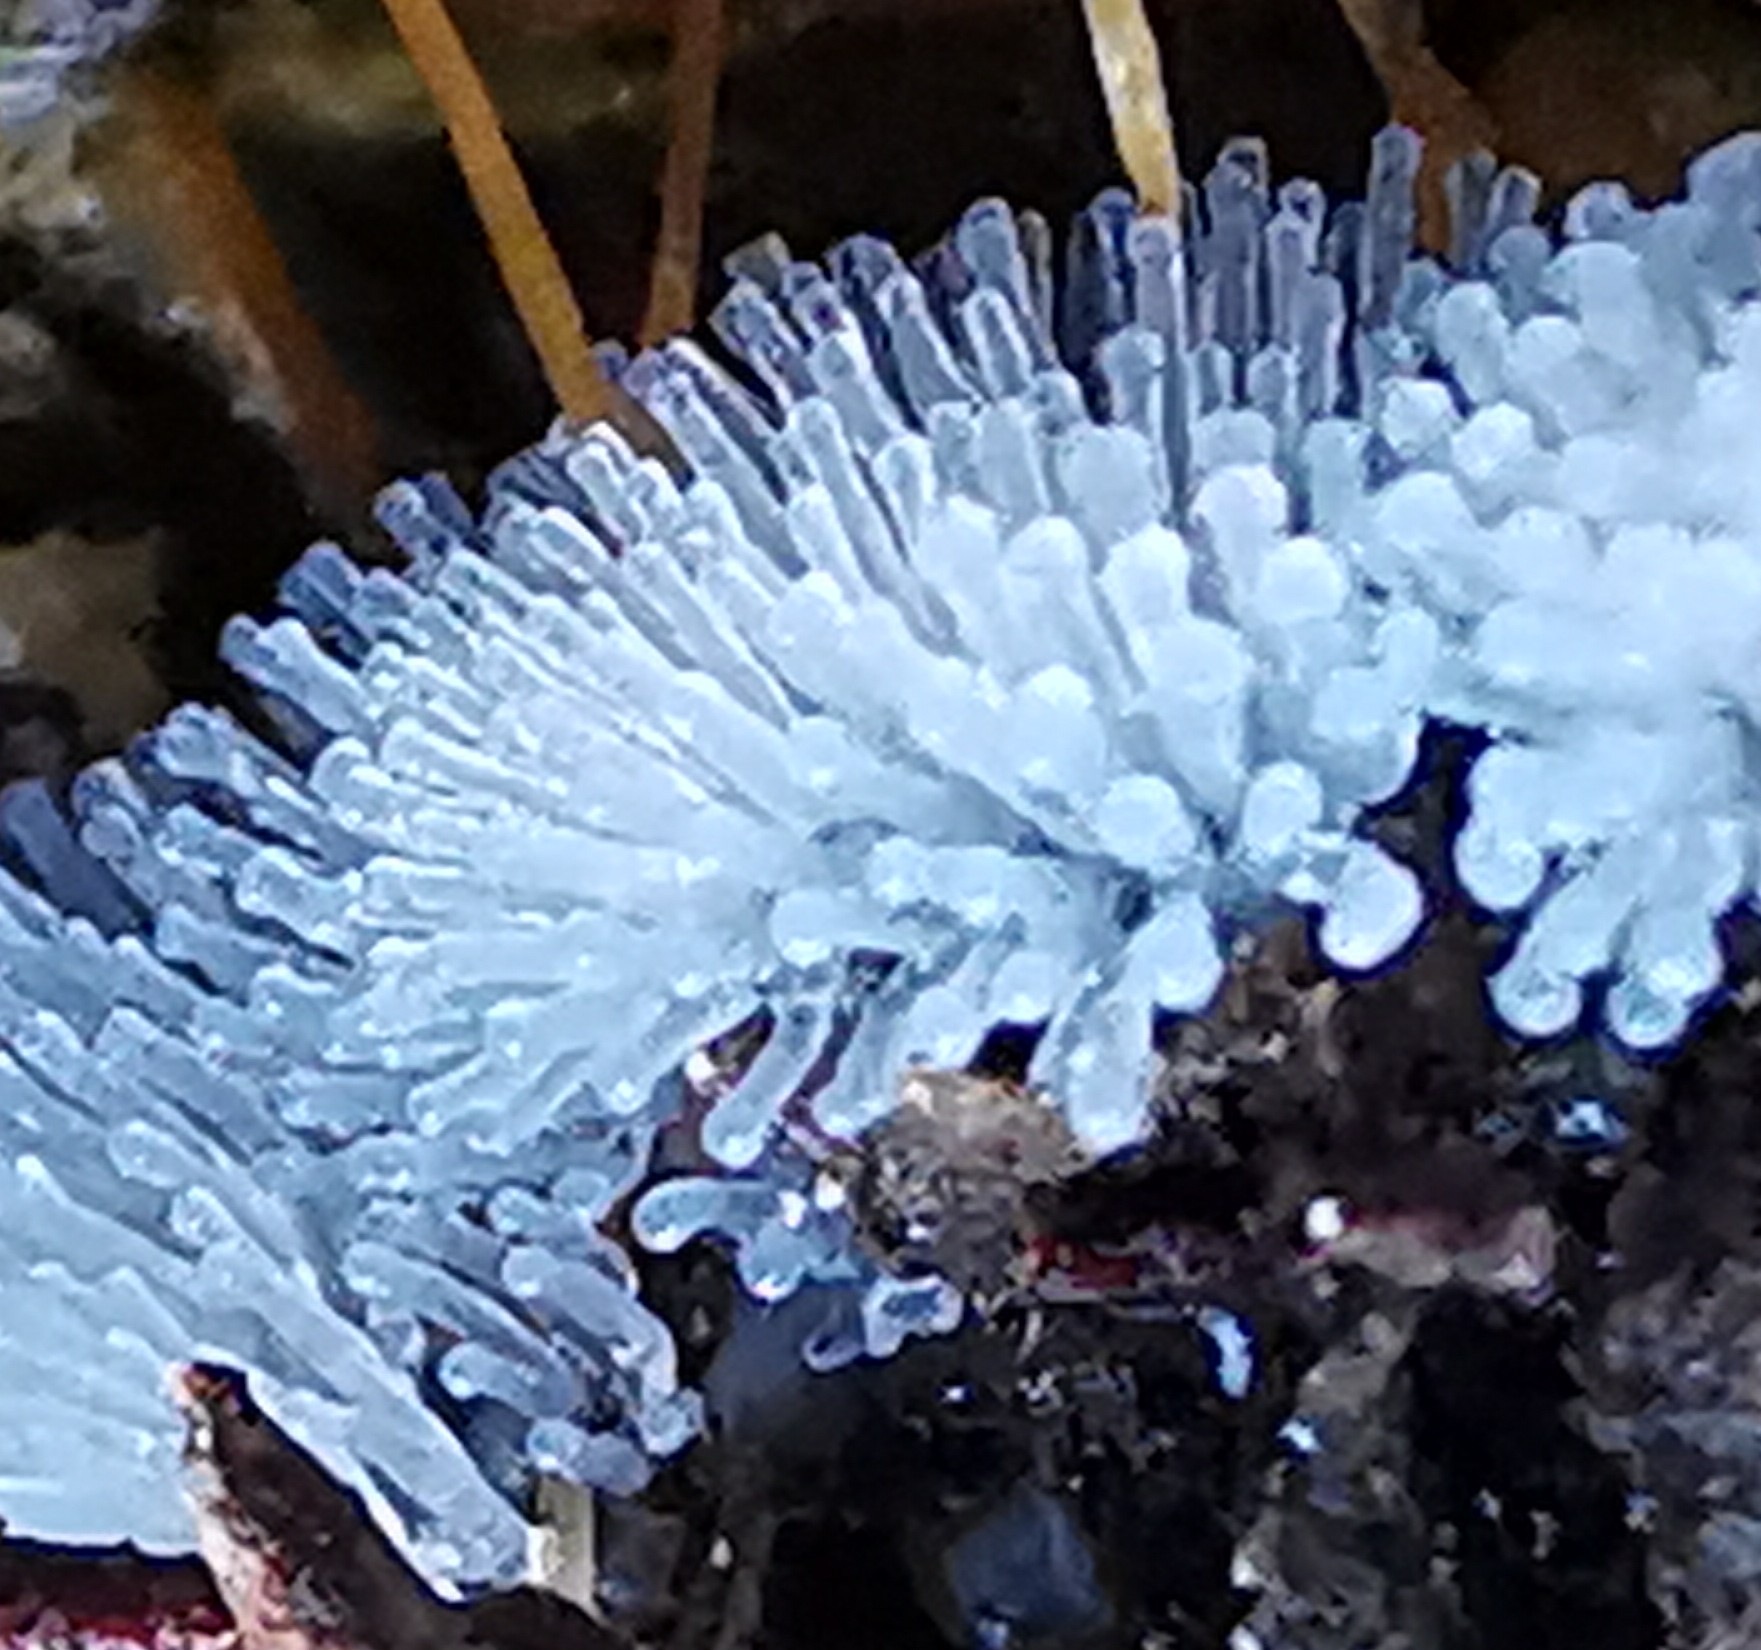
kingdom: Protozoa
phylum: Mycetozoa
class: Protosteliomycetes
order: Ceratiomyxales
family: Ceratiomyxaceae
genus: Ceratiomyxa
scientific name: Ceratiomyxa fruticulosa
